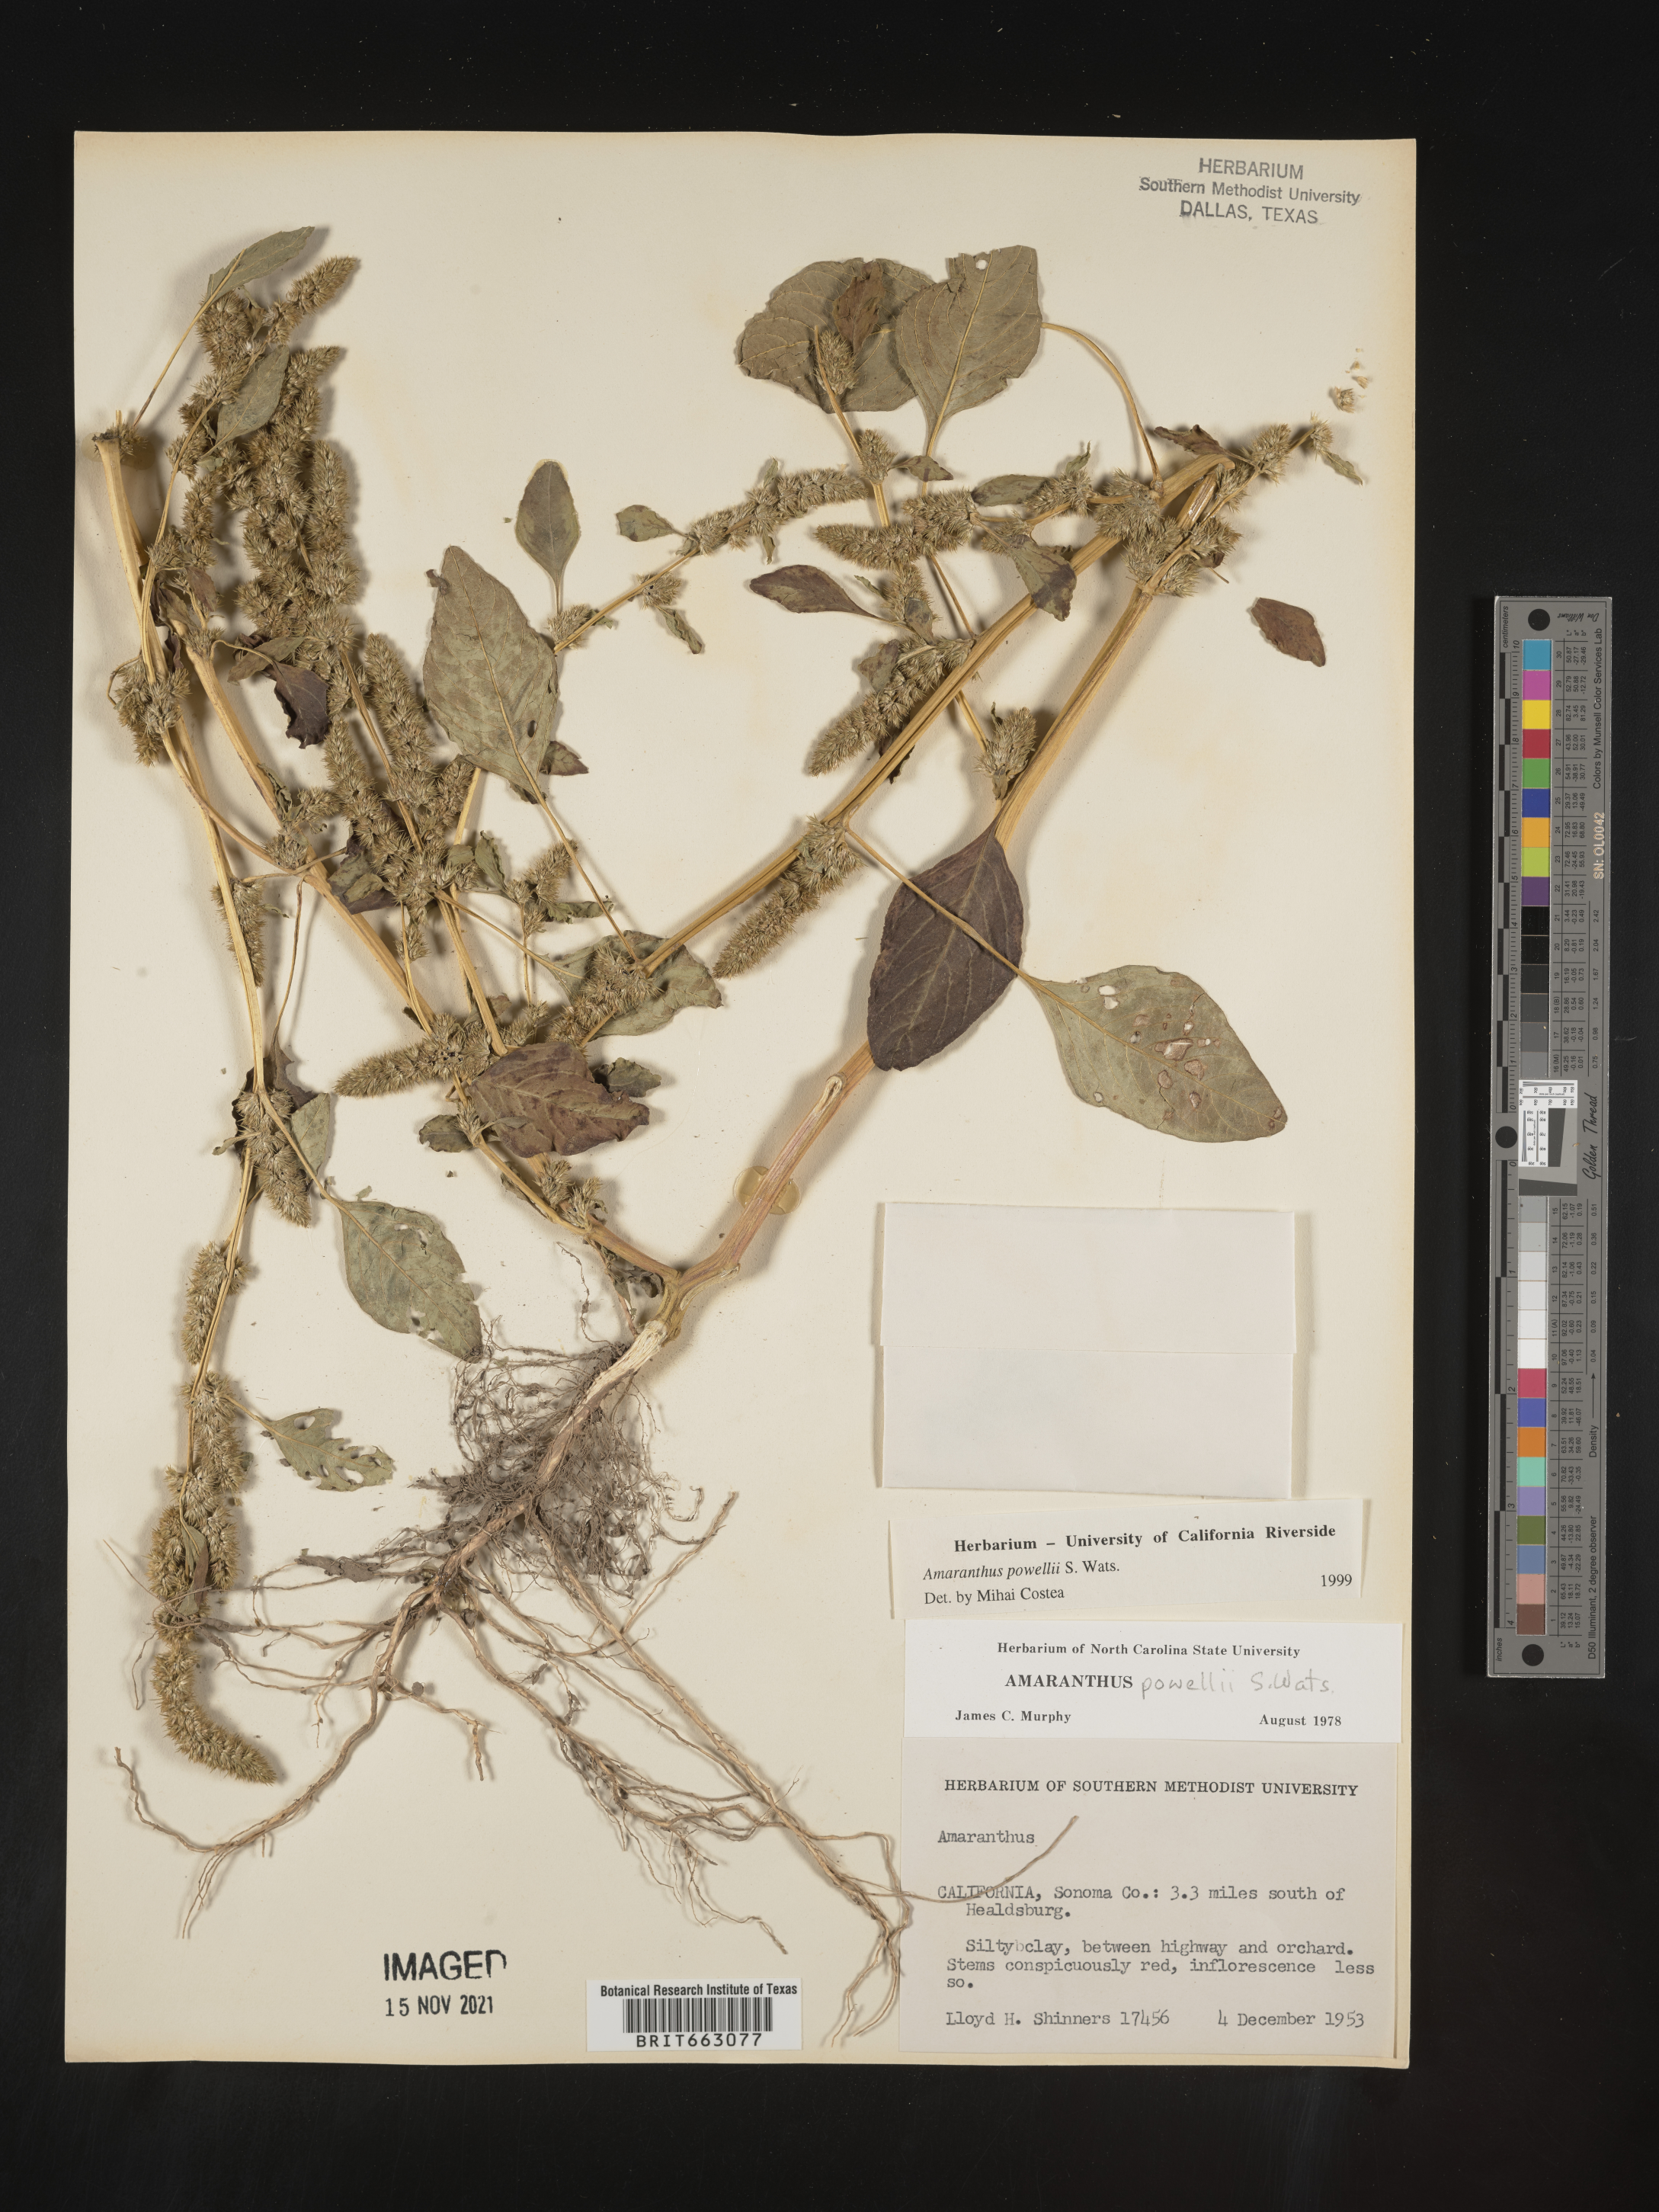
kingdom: Plantae
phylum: Tracheophyta
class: Magnoliopsida
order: Caryophyllales
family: Amaranthaceae
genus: Amaranthus
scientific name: Amaranthus powellii
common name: Powell's amaranth
